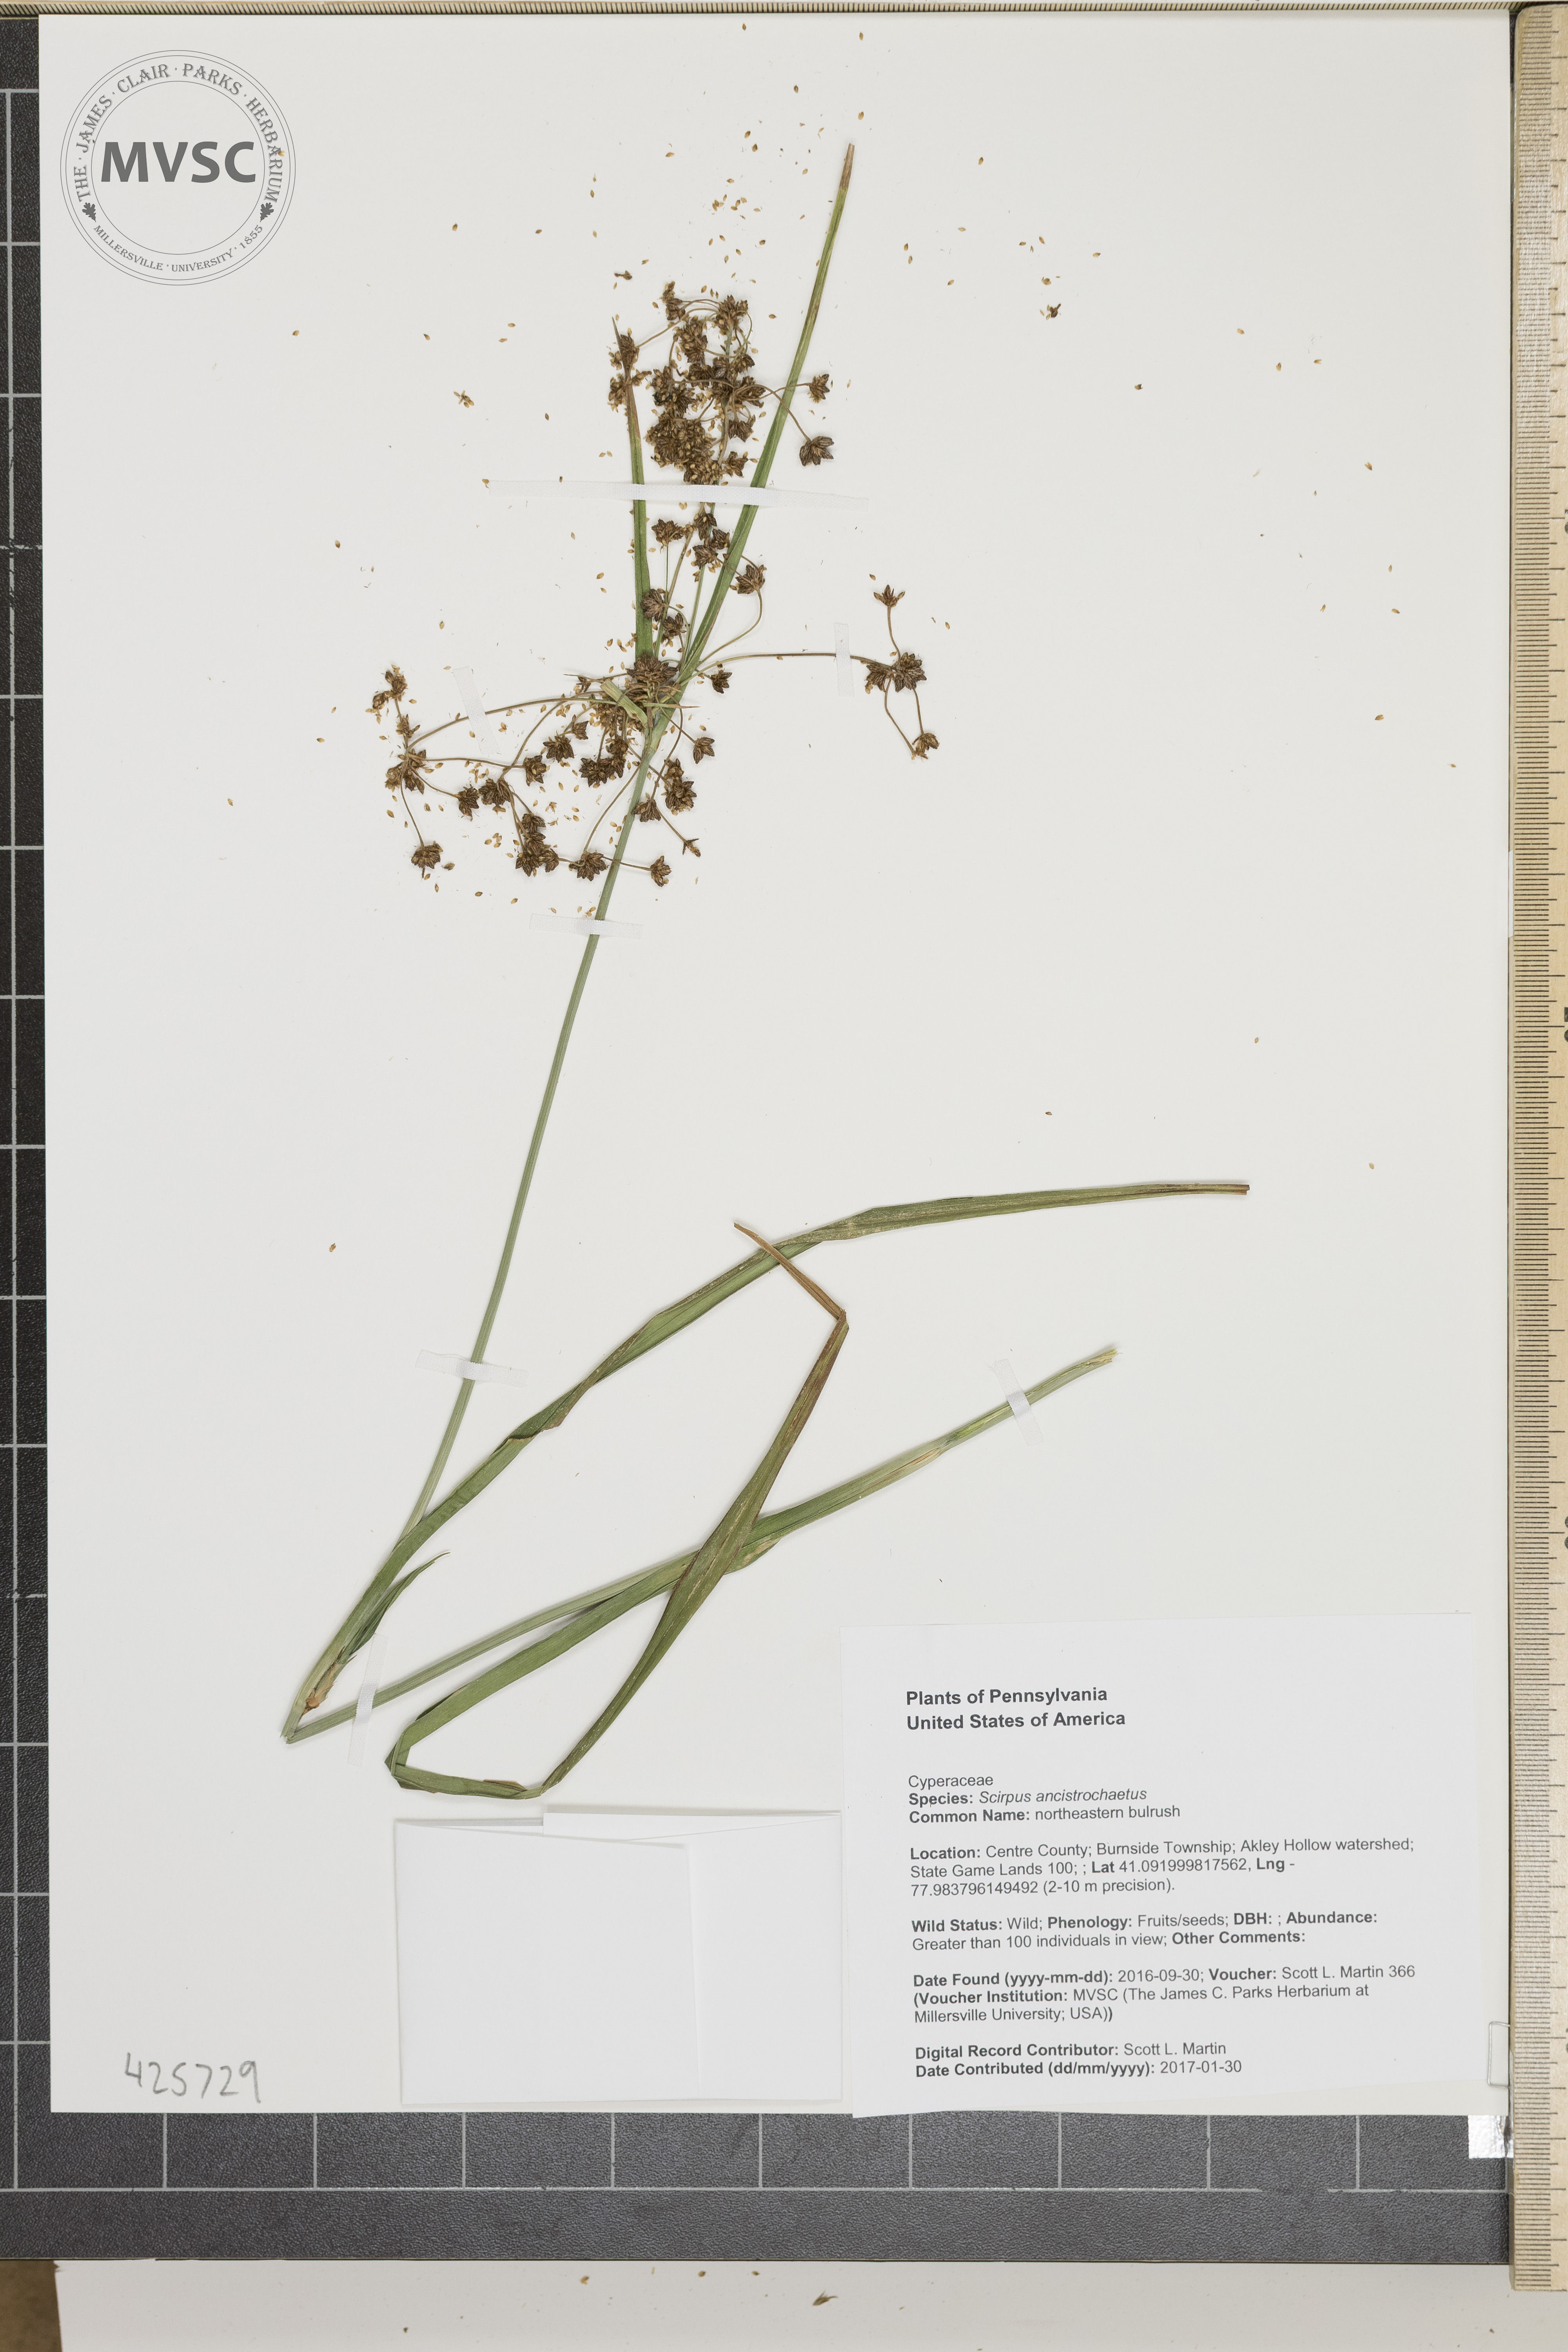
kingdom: Plantae
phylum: Tracheophyta
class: Liliopsida
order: Poales
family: Cyperaceae
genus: Scirpus
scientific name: Scirpus ancistrochaetus
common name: northeastern bulrush
